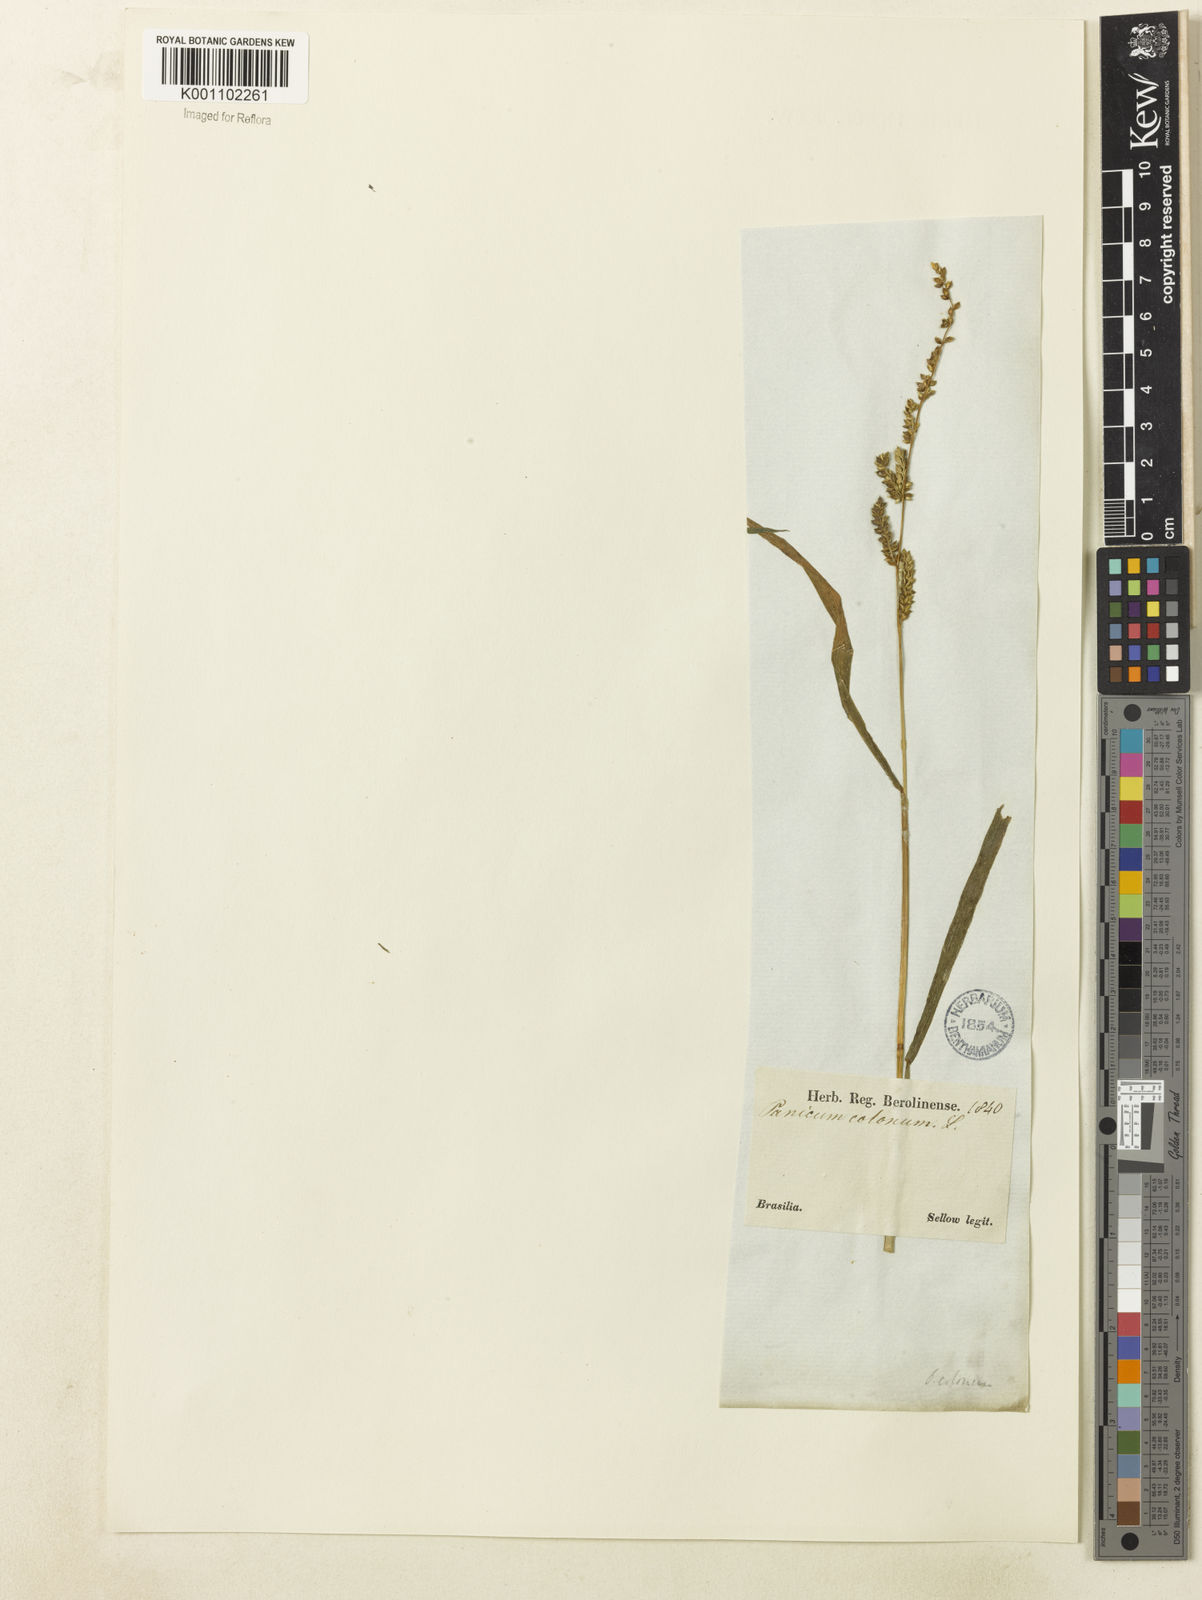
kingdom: Plantae
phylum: Tracheophyta
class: Liliopsida
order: Poales
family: Poaceae
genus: Echinochloa
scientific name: Echinochloa colonum
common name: Jungle rice
